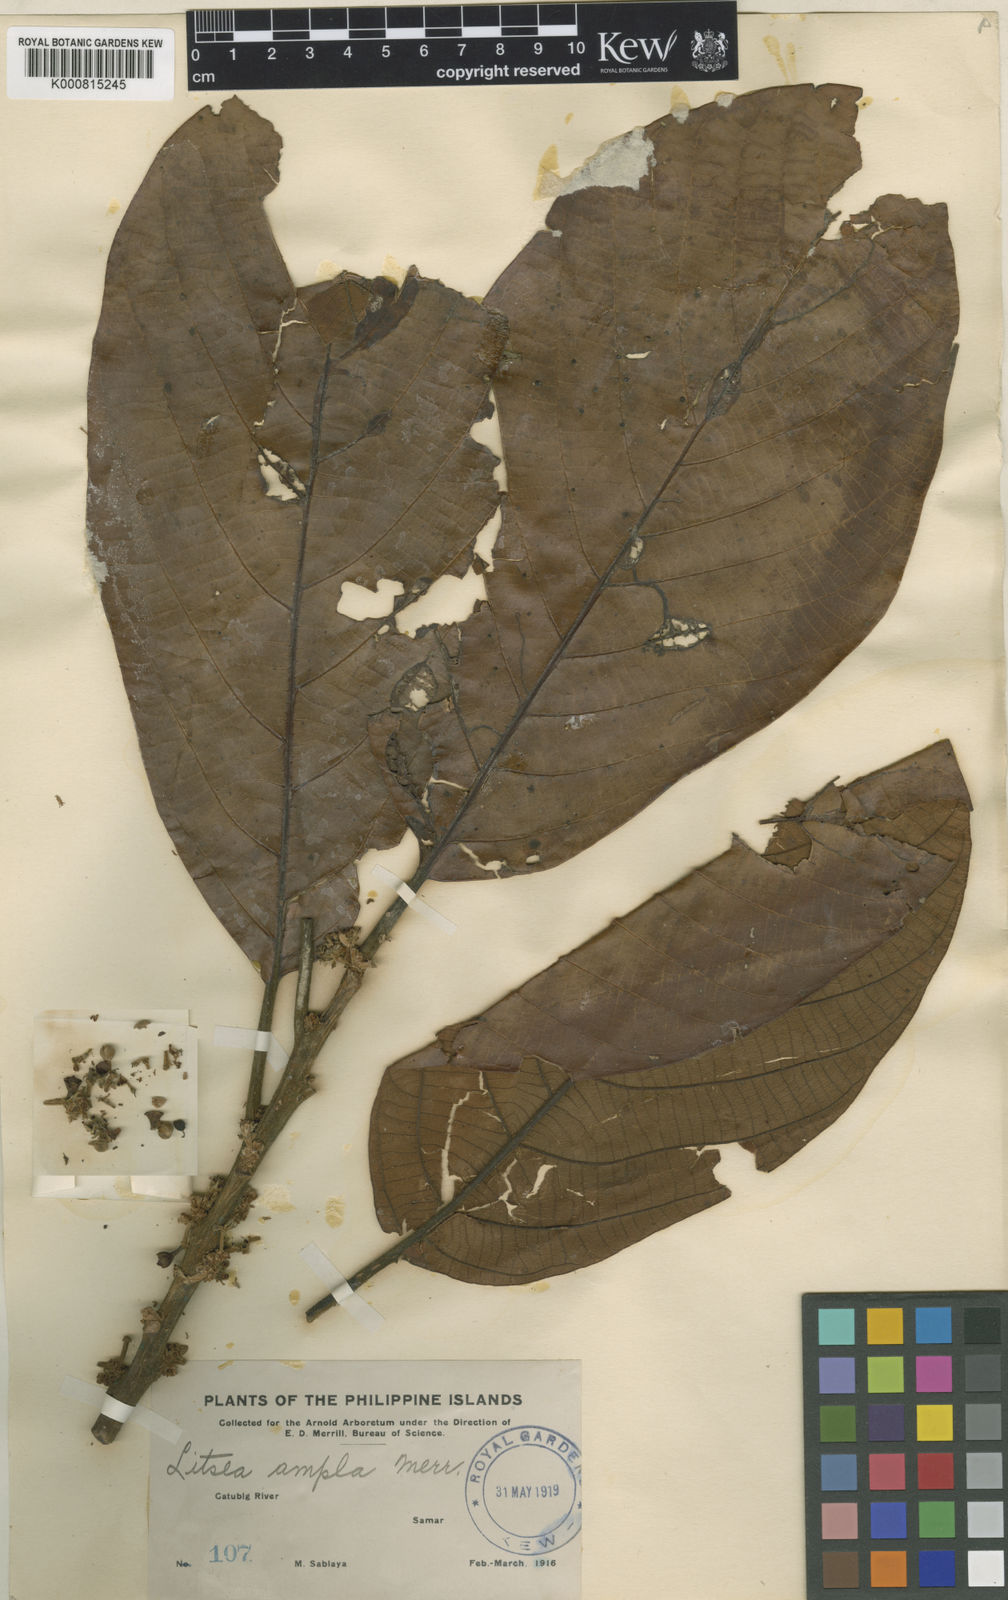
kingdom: Plantae
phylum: Tracheophyta
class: Magnoliopsida
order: Laurales
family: Lauraceae
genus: Litsea
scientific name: Litsea grandis
